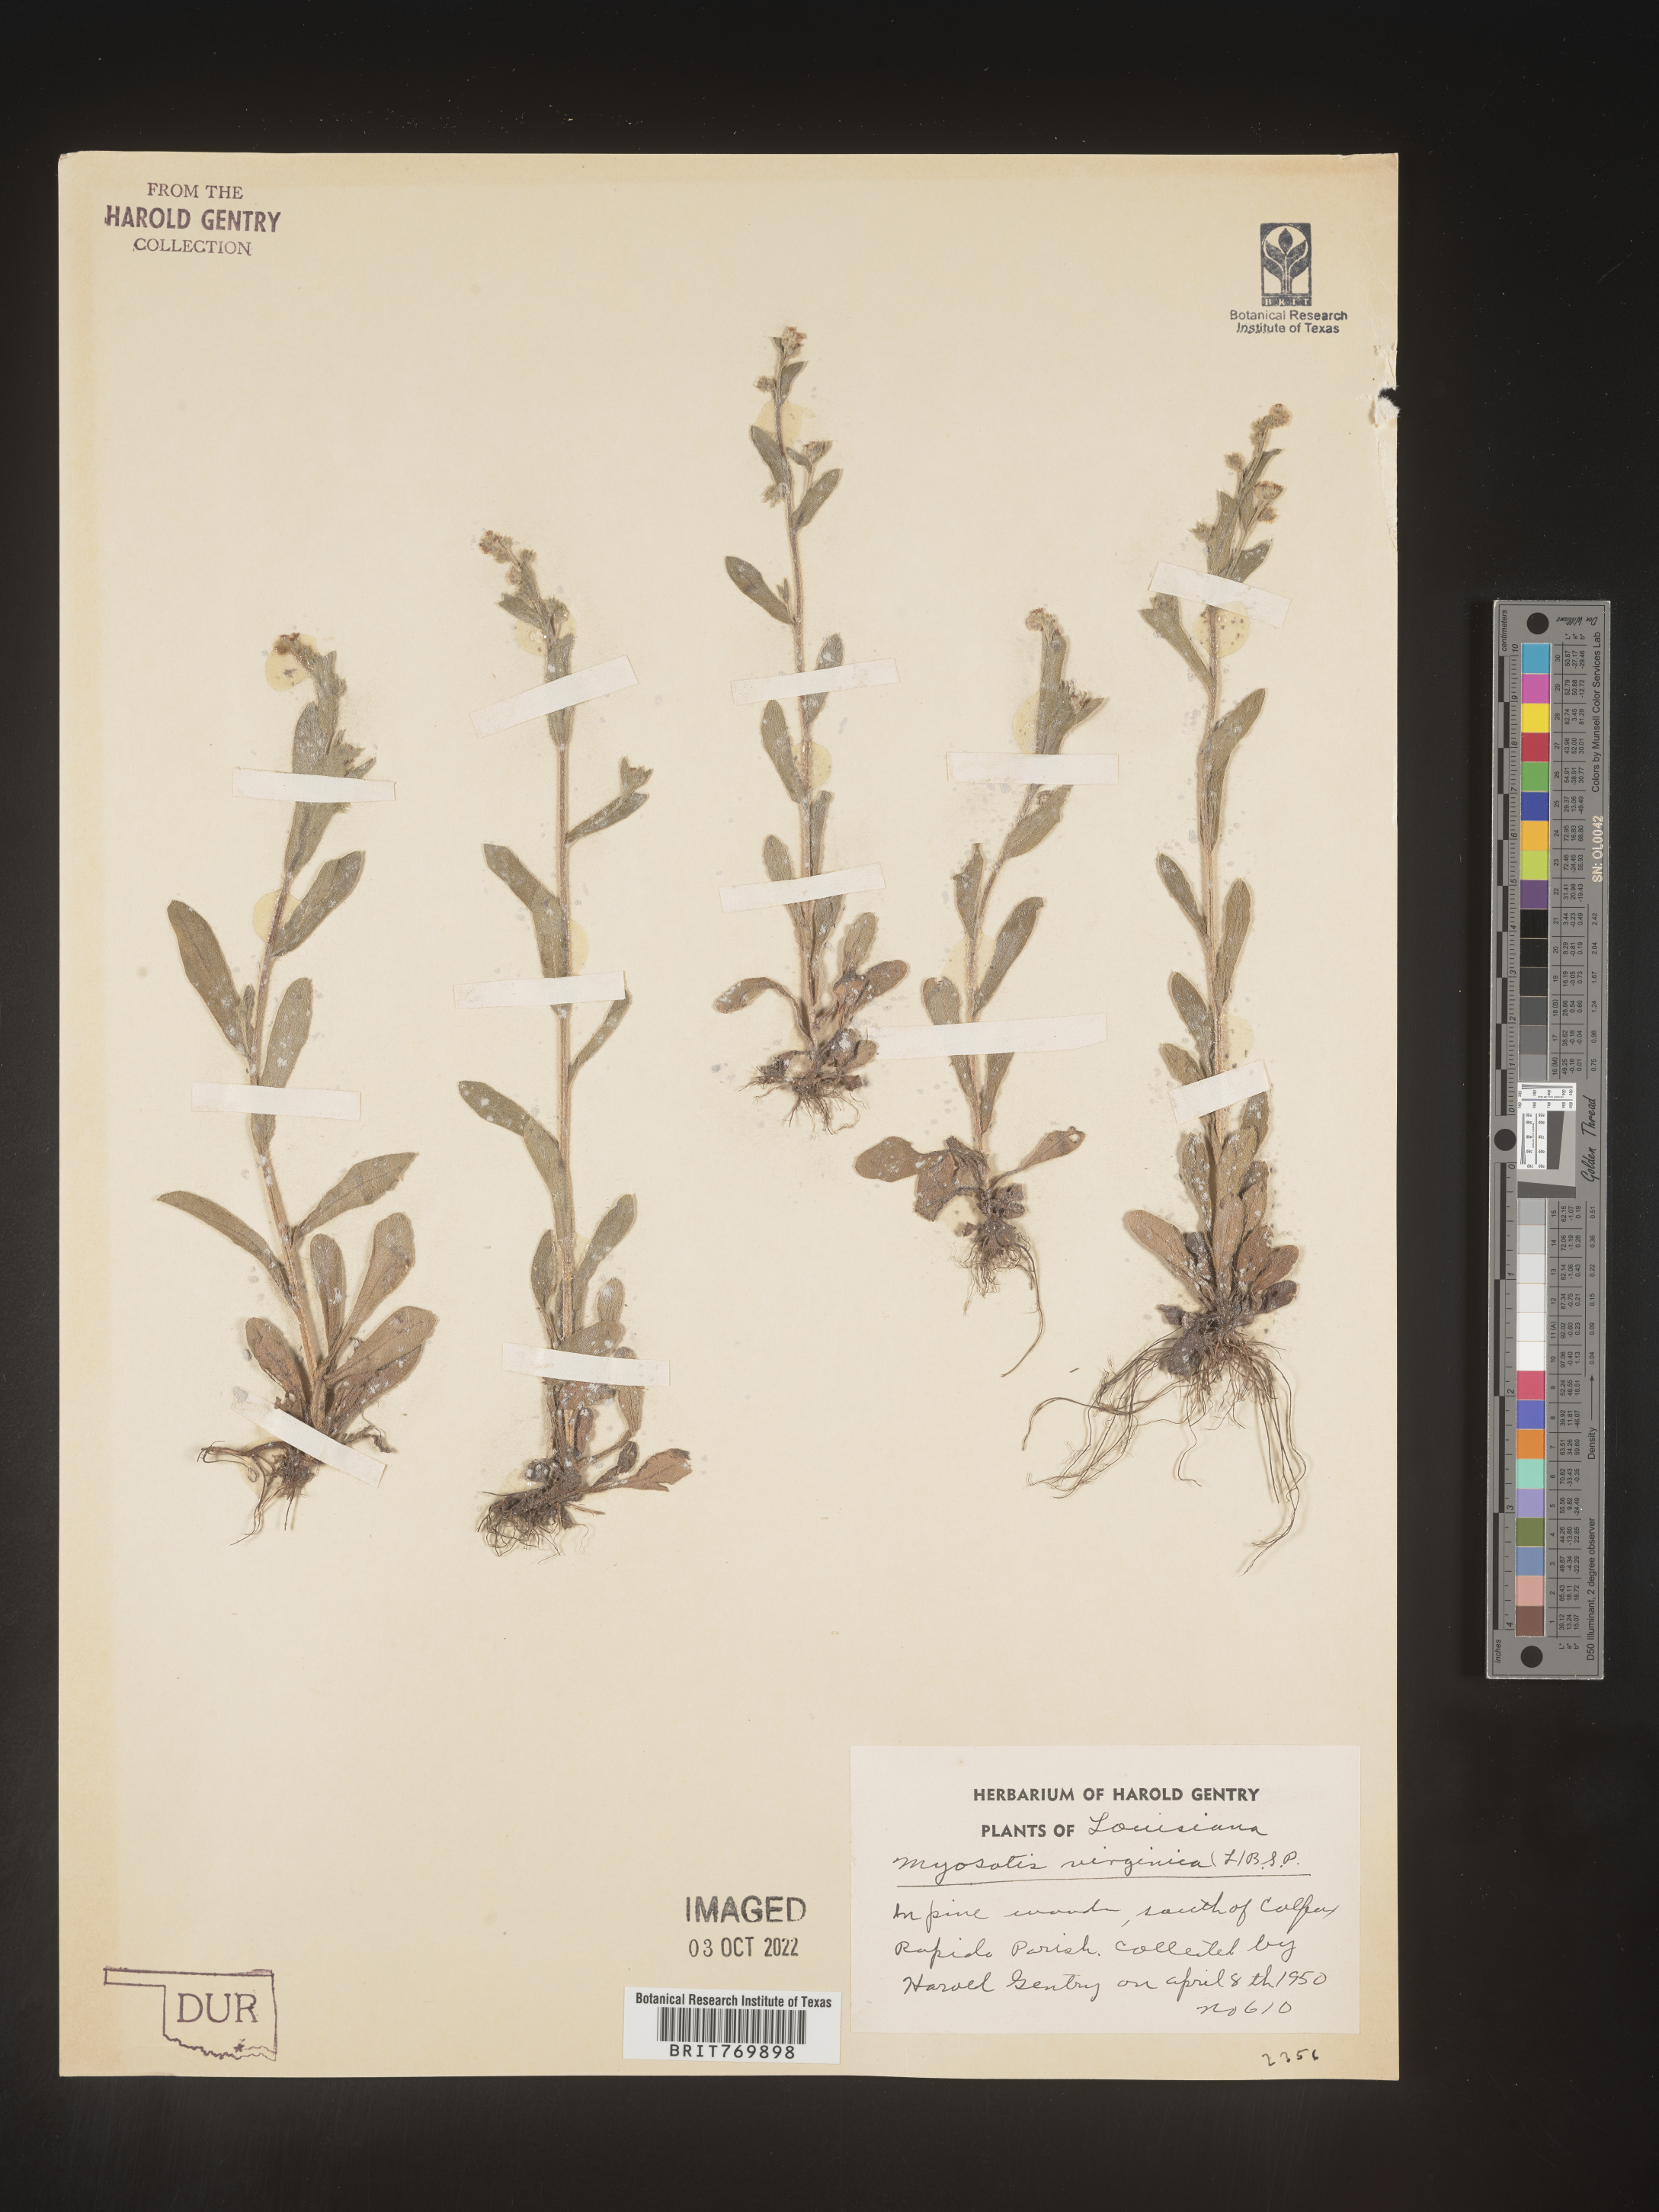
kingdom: Plantae
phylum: Tracheophyta
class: Magnoliopsida
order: Boraginales
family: Boraginaceae
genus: Myosotis
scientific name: Myosotis verna
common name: Early forget-me-not
